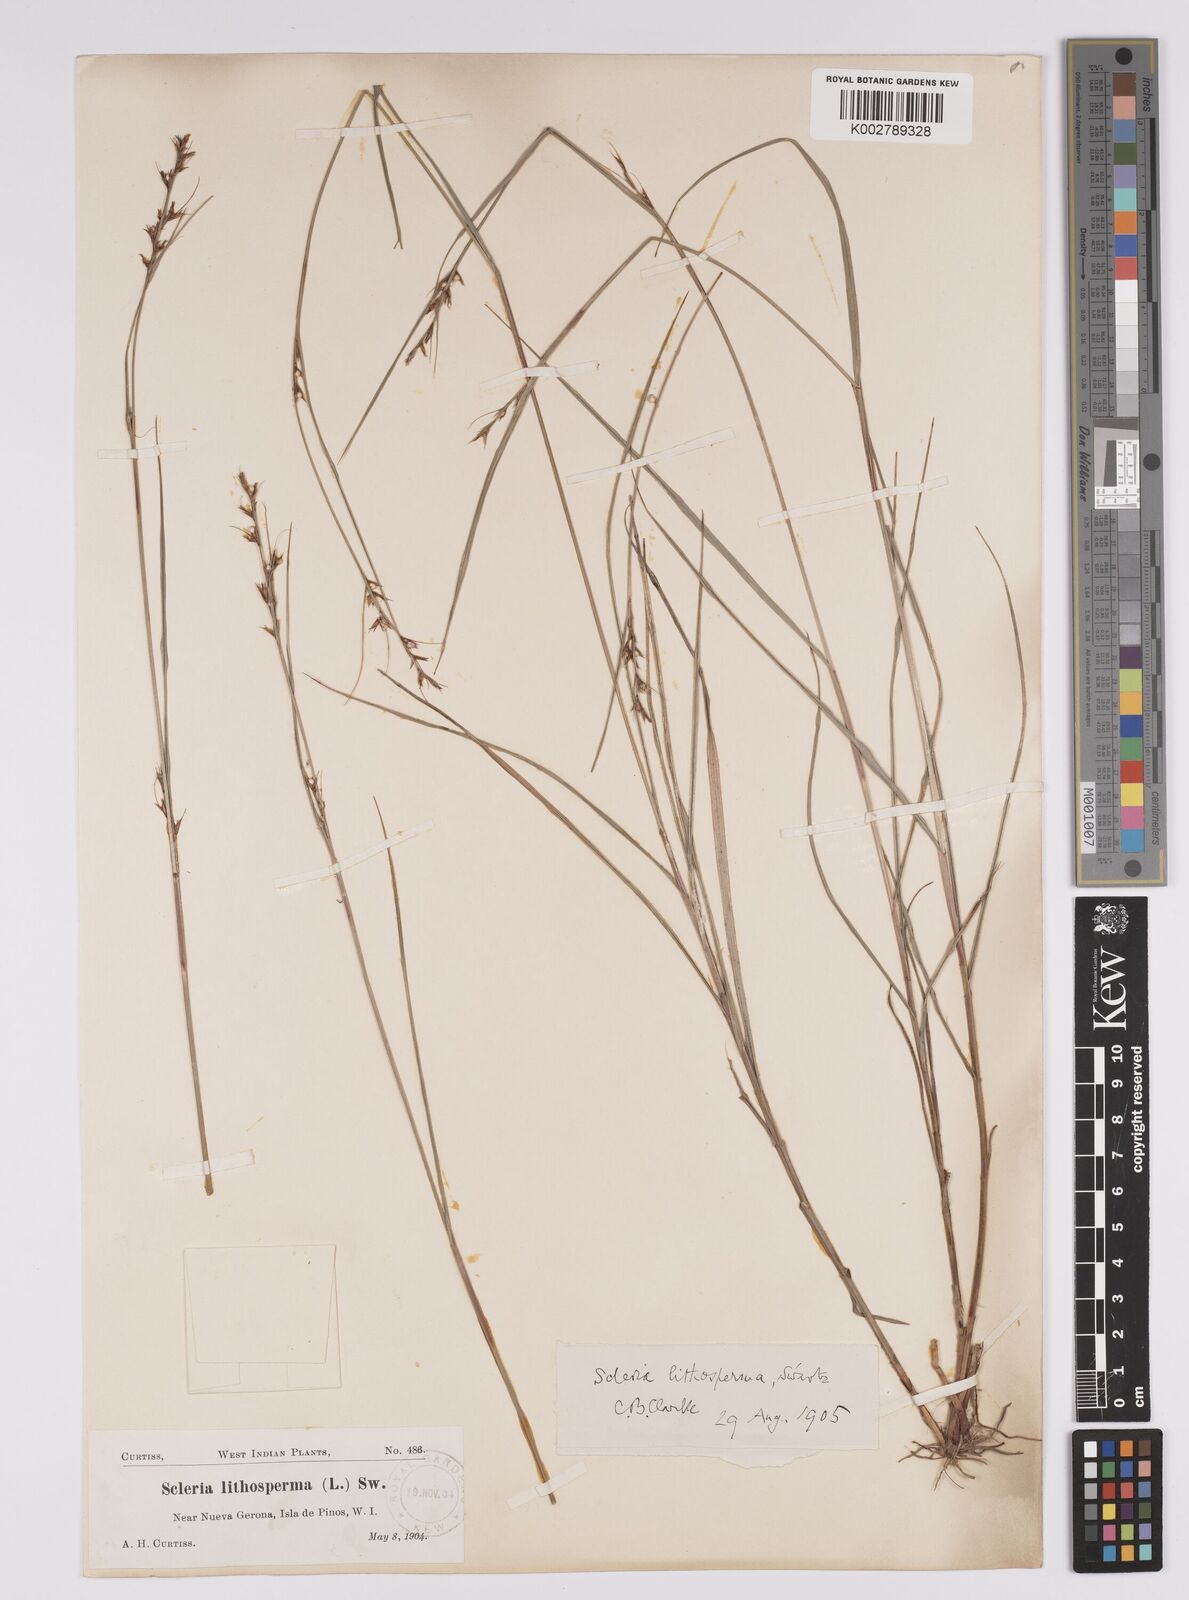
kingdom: Plantae
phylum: Tracheophyta
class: Liliopsida
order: Poales
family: Cyperaceae
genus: Scleria
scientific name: Scleria lithosperma
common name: Florida keys nut-rush
